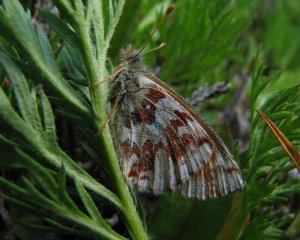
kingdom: Animalia
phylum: Arthropoda
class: Insecta
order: Lepidoptera
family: Nymphalidae
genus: Boloria
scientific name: Boloria alaskensis
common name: Alaskan Fritillary
